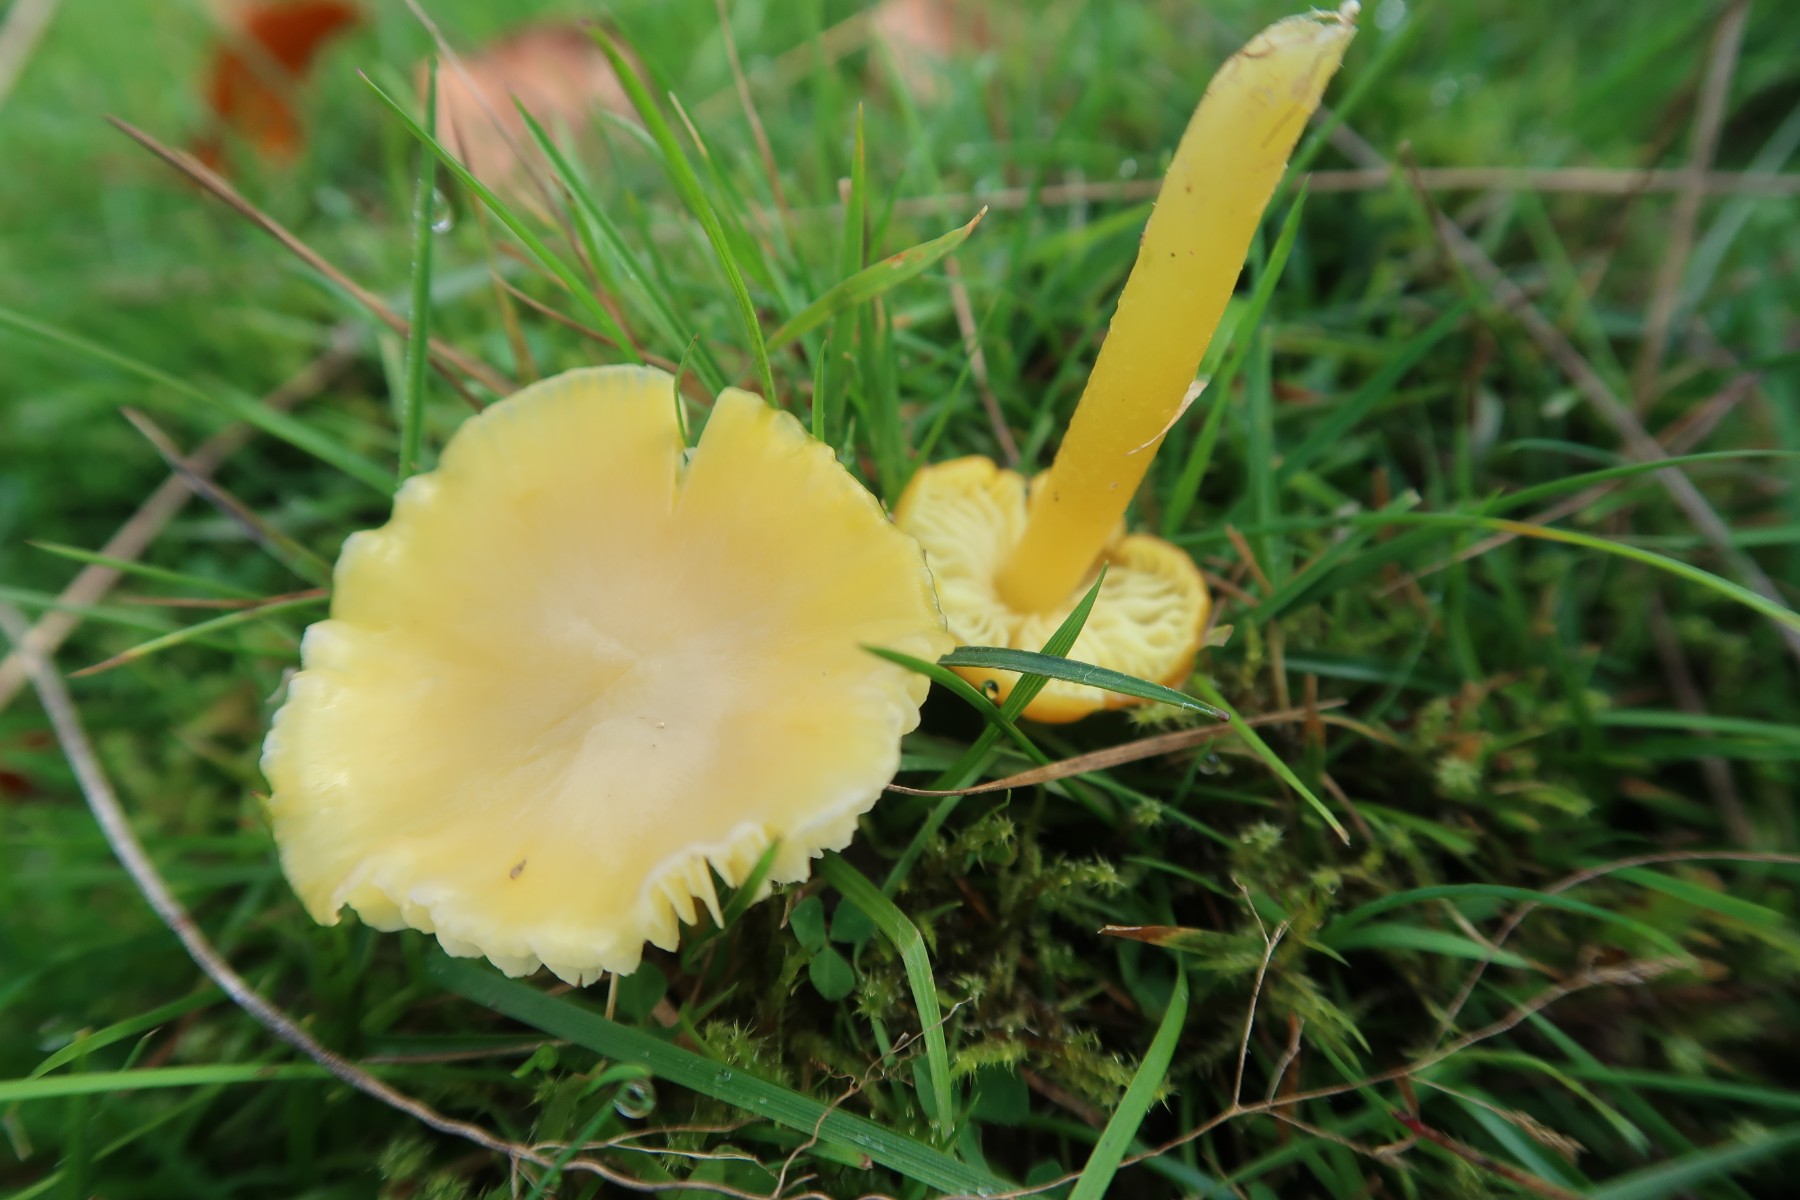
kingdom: Fungi
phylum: Basidiomycota
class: Agaricomycetes
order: Agaricales
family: Hygrophoraceae
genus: Hygrocybe
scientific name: Hygrocybe chlorophana
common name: gul vokshat
